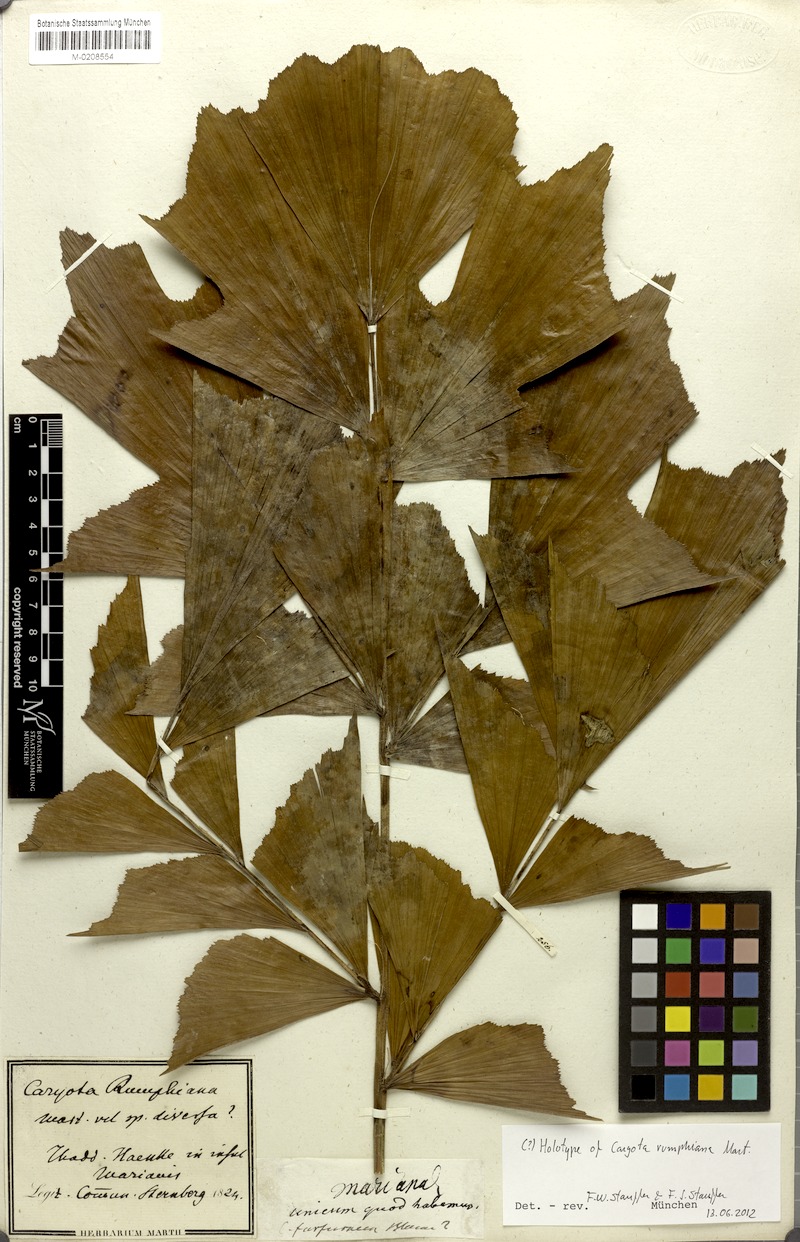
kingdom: Plantae
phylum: Tracheophyta
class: Liliopsida
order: Arecales
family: Arecaceae
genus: Caryota
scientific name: Caryota rumphiana
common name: Albert palm
